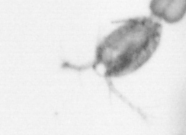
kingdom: Animalia
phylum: Arthropoda
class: Copepoda
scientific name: Copepoda
